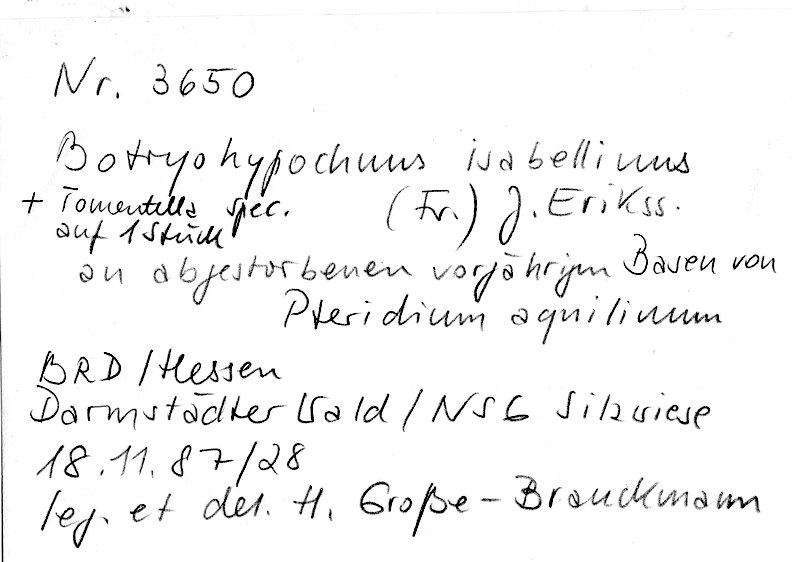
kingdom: Fungi
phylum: Basidiomycota
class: Agaricomycetes
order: Trechisporales
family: Sistotremataceae
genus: Trechispora
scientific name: Trechispora
